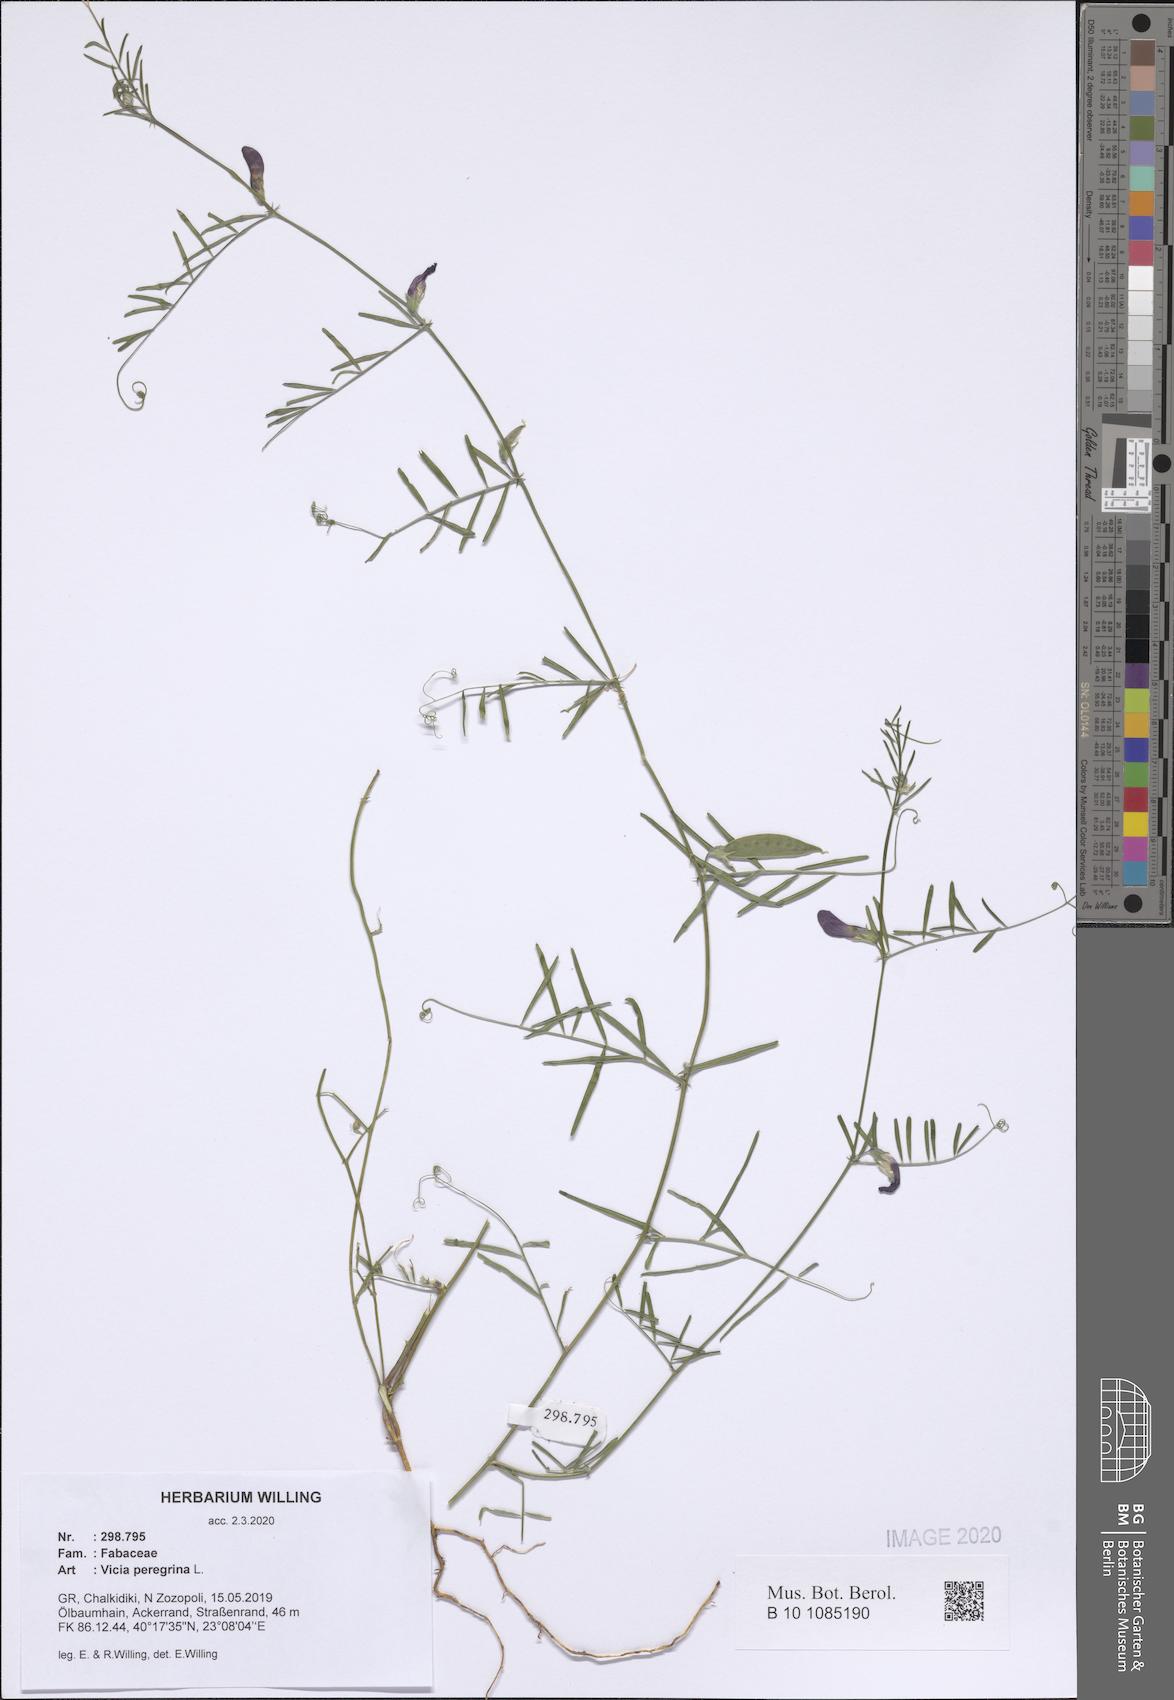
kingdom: Plantae
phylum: Tracheophyta
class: Magnoliopsida
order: Fabales
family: Fabaceae
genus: Vicia
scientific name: Vicia peregrina
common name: Broad-pod vetch
